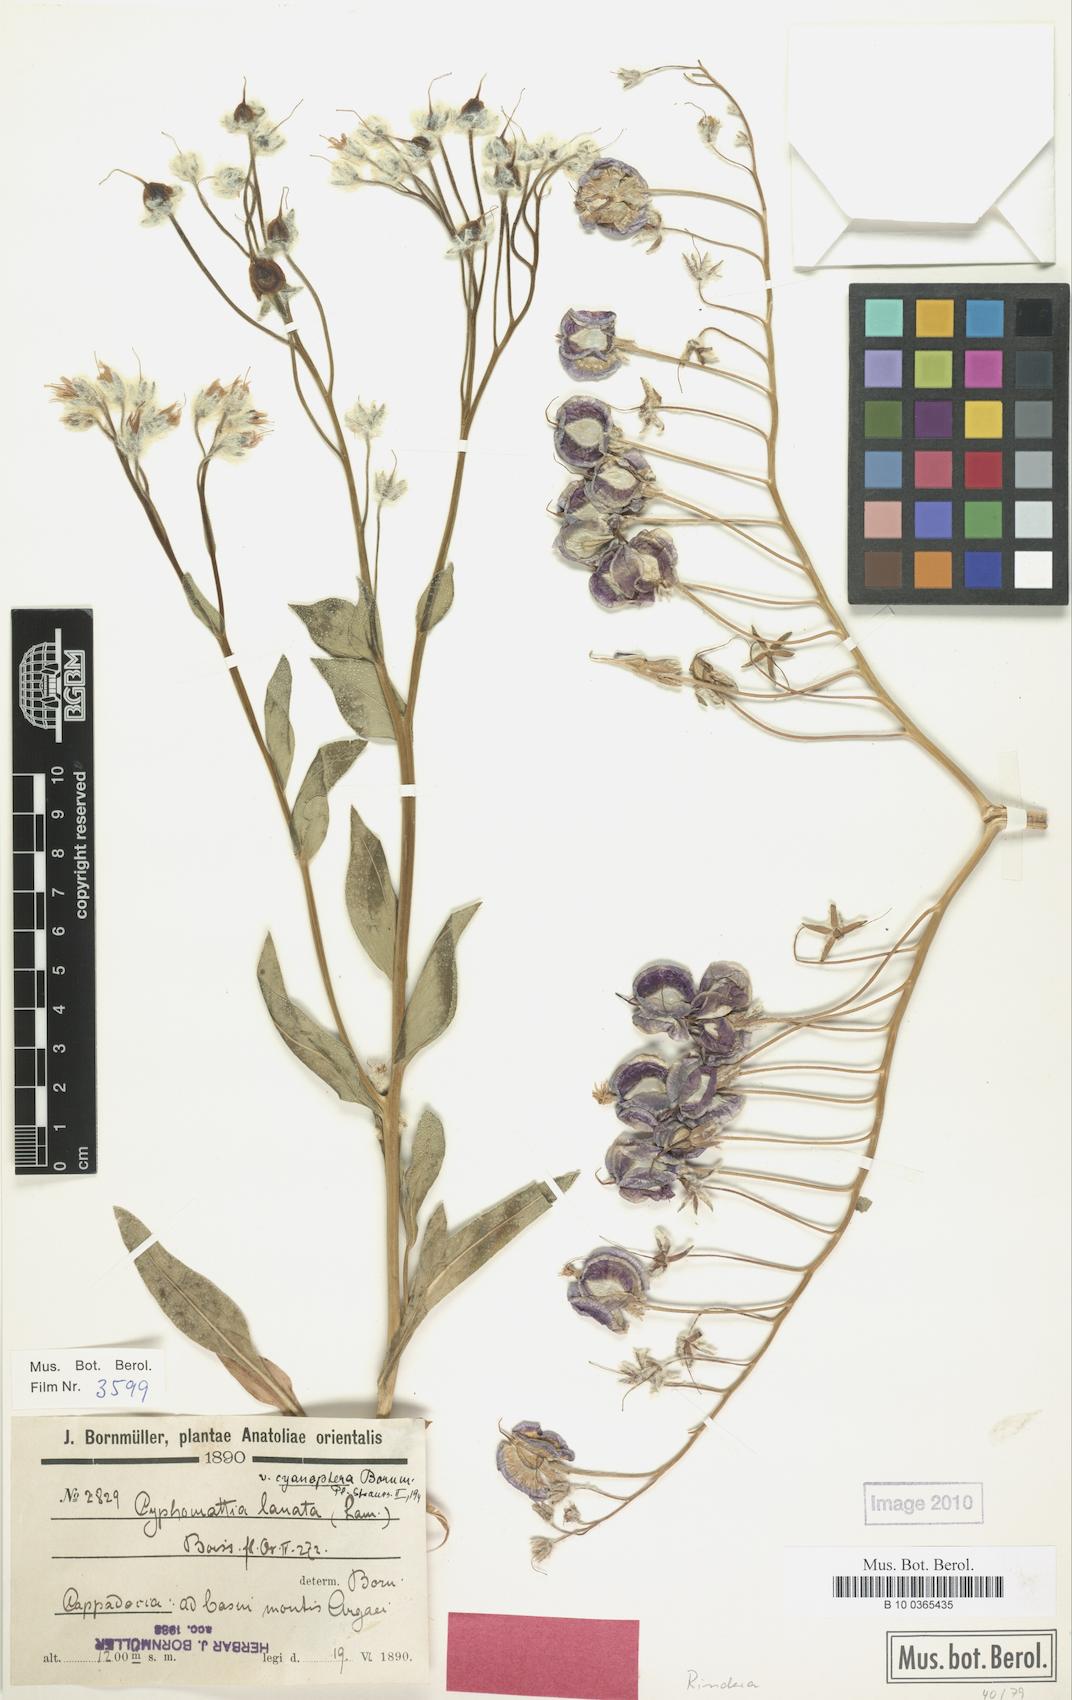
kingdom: Plantae
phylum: Tracheophyta
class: Magnoliopsida
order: Boraginales
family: Boraginaceae
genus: Rindera
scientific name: Rindera lanata
